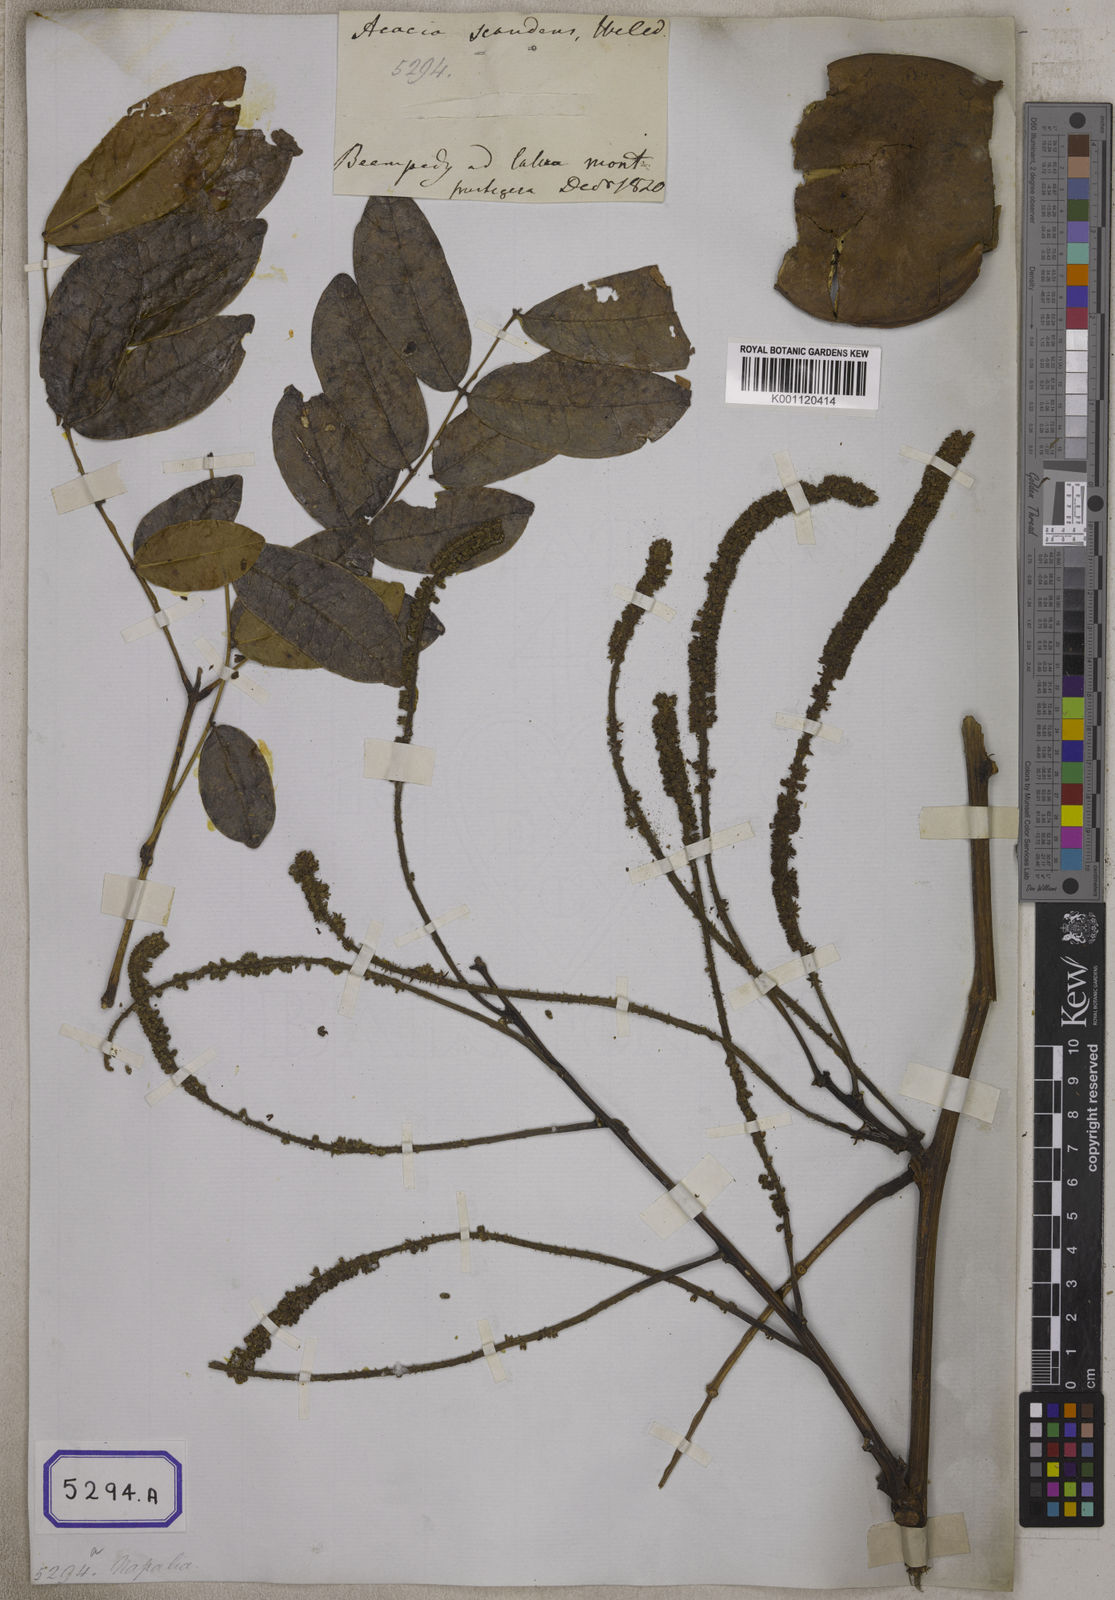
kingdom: Plantae
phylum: Tracheophyta
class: Magnoliopsida
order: Fabales
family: Fabaceae
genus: Entada
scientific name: Entada rheedei
